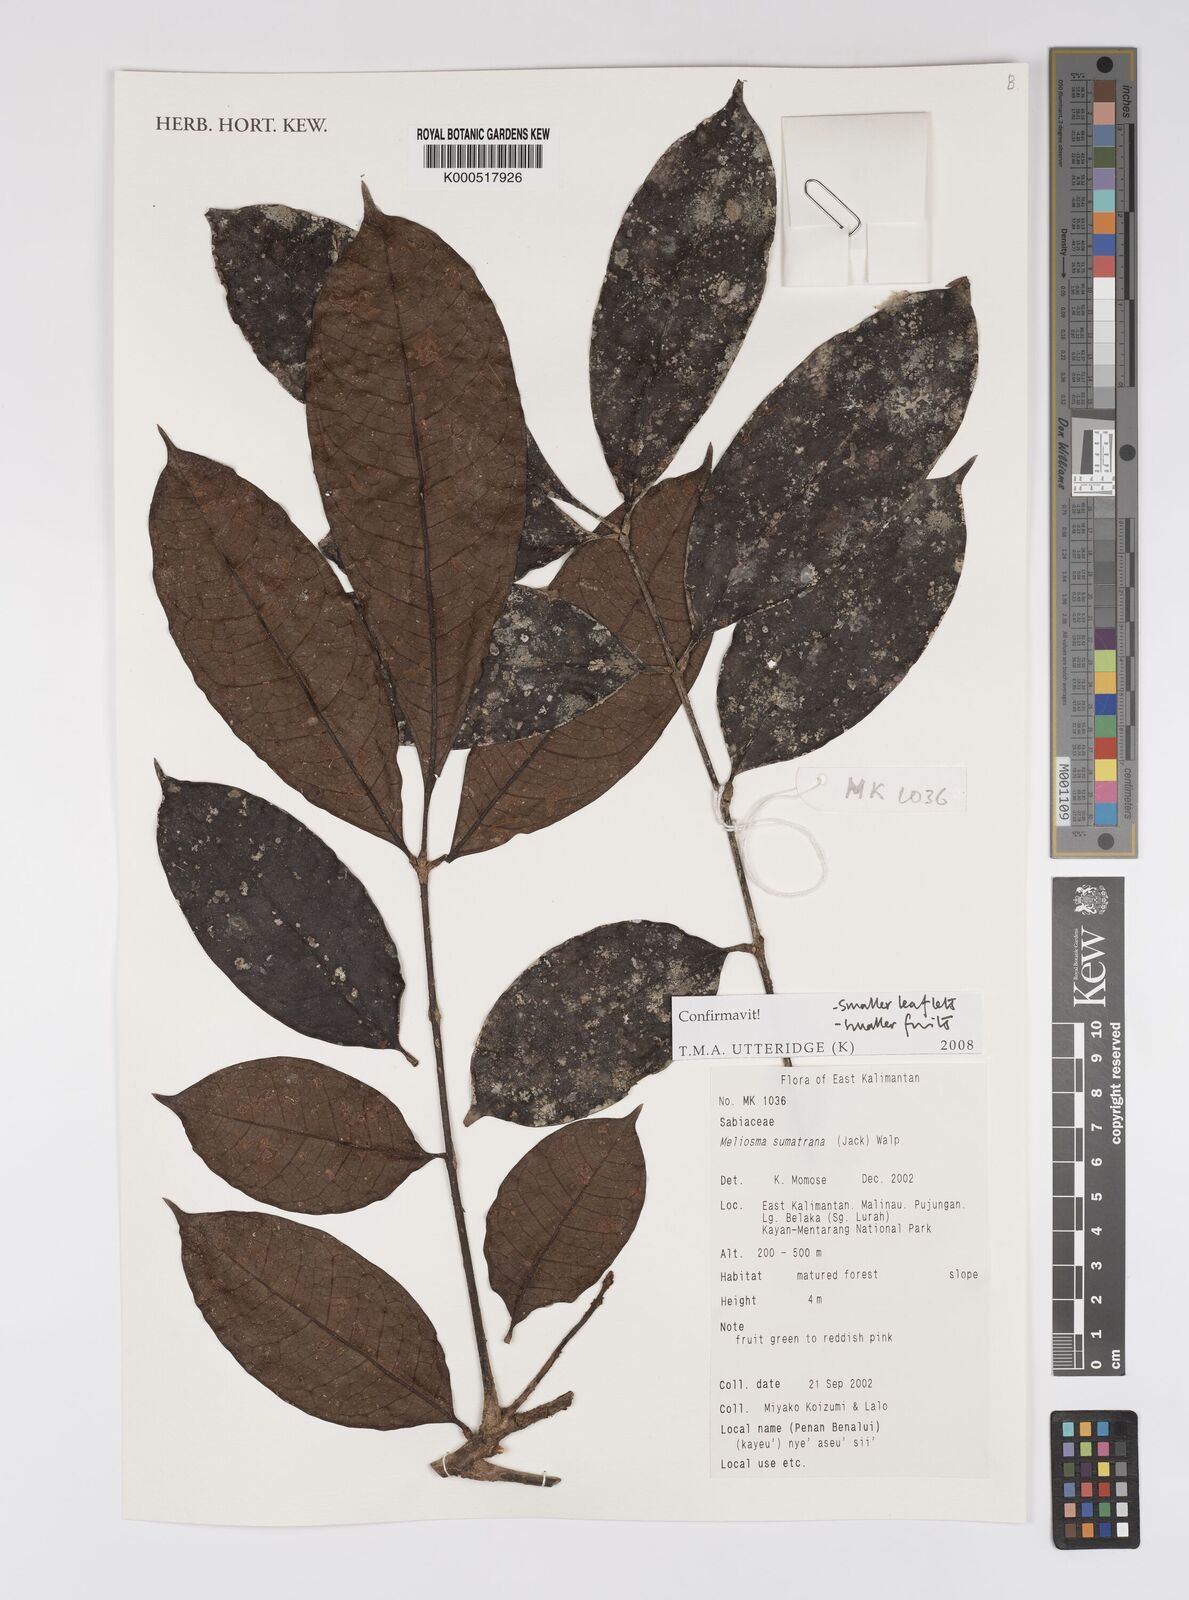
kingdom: Plantae
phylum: Tracheophyta
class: Magnoliopsida
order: Proteales
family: Sabiaceae
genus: Meliosma
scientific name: Meliosma sumatrana
